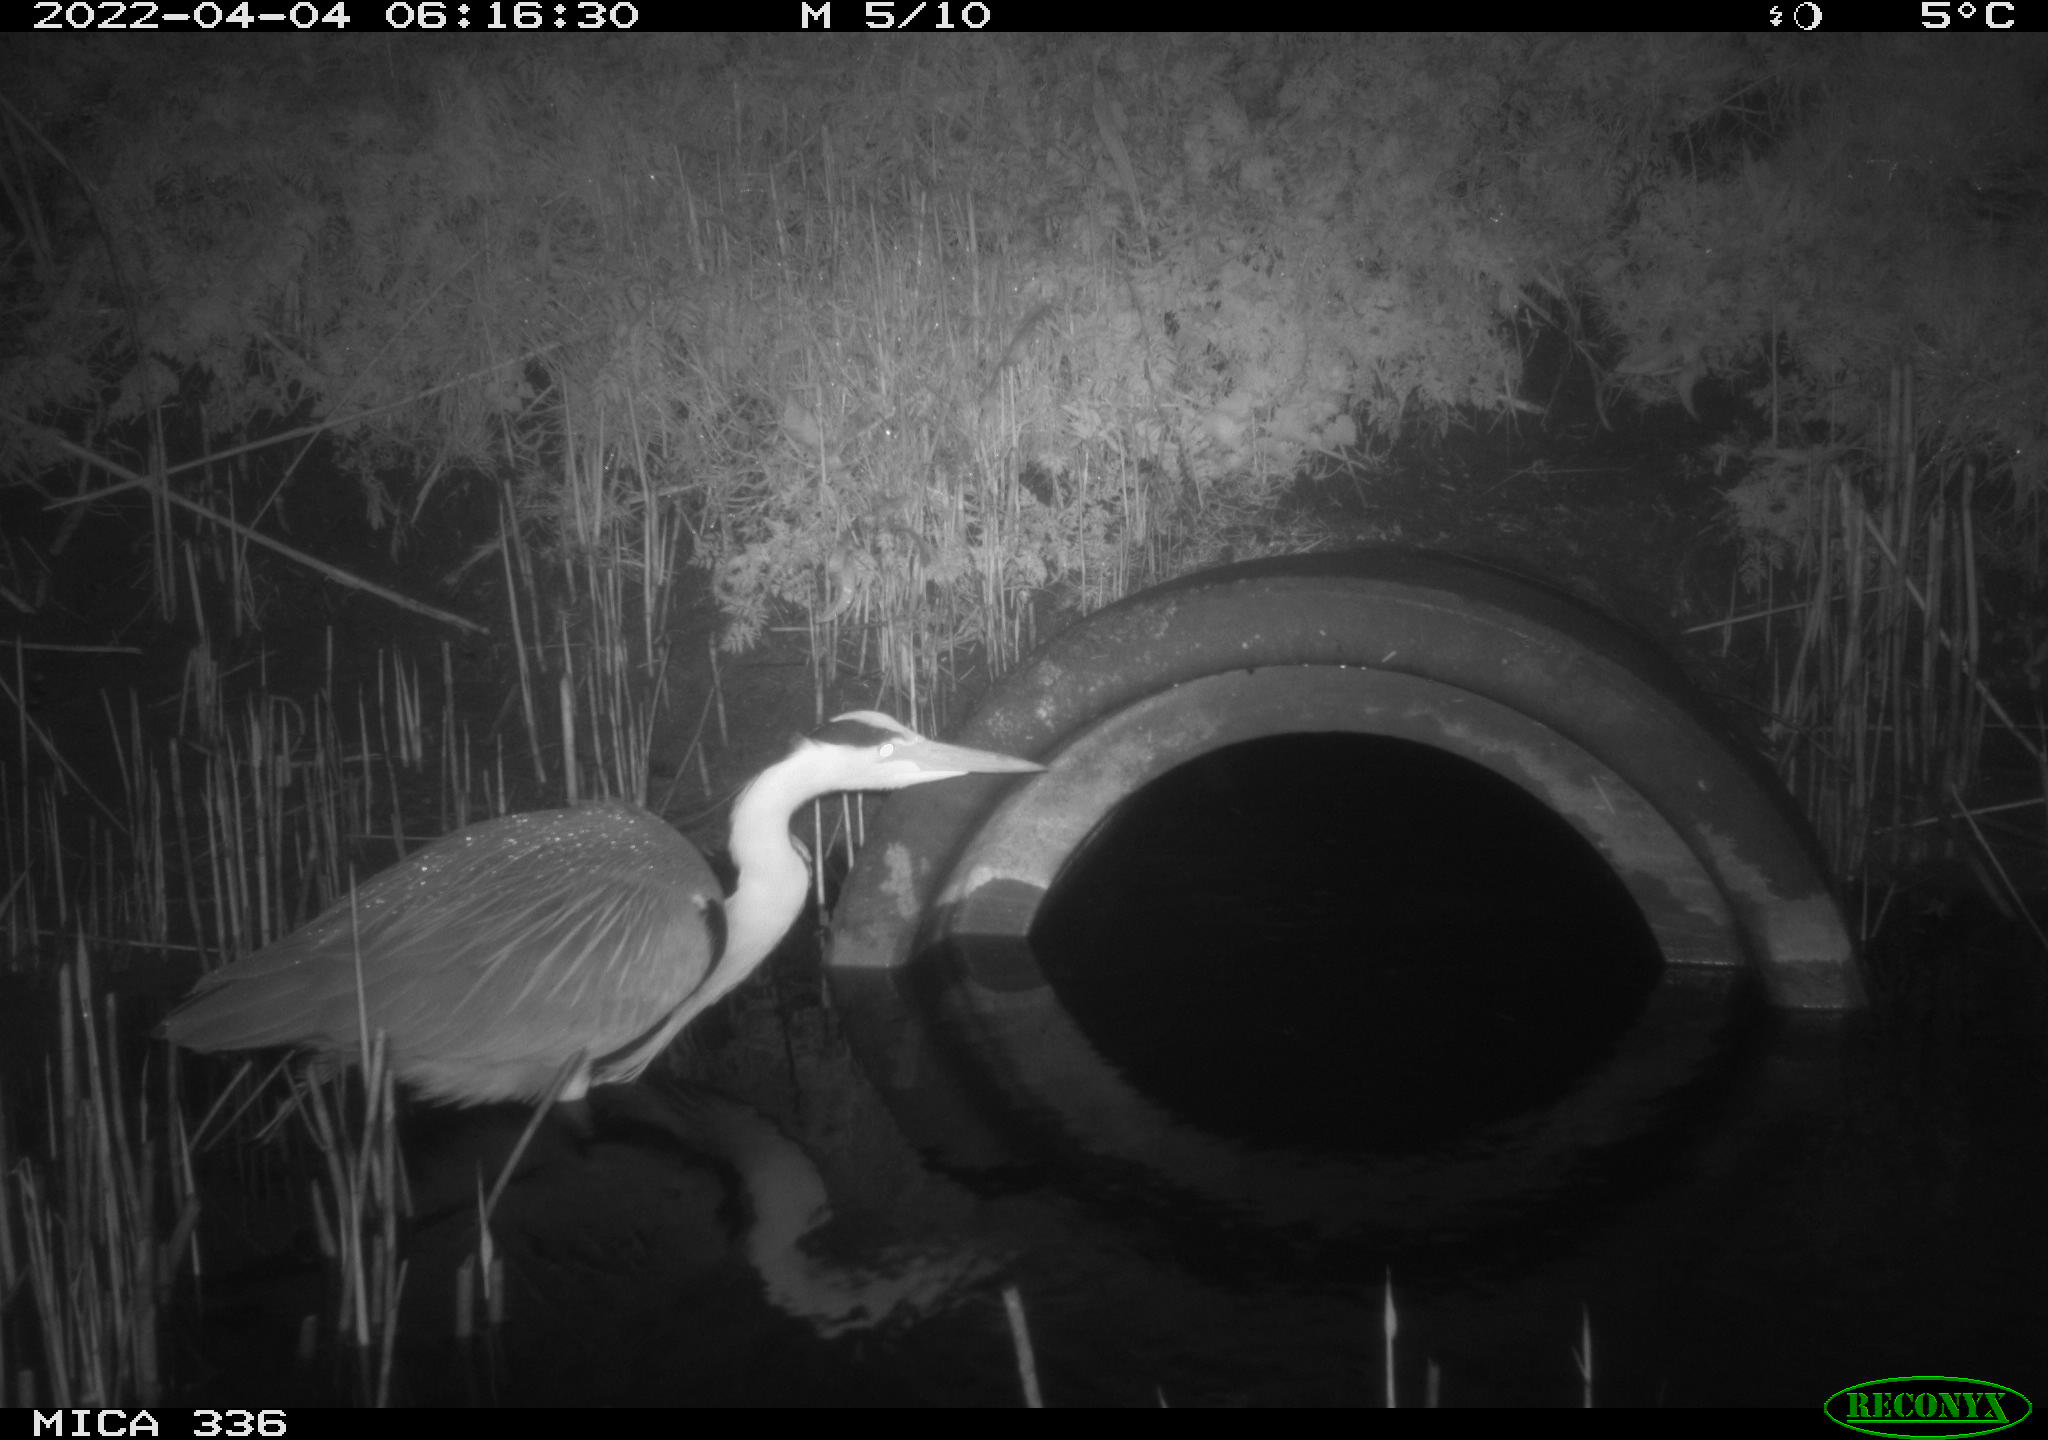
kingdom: Animalia
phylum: Chordata
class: Aves
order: Pelecaniformes
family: Ardeidae
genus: Ardea
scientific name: Ardea
